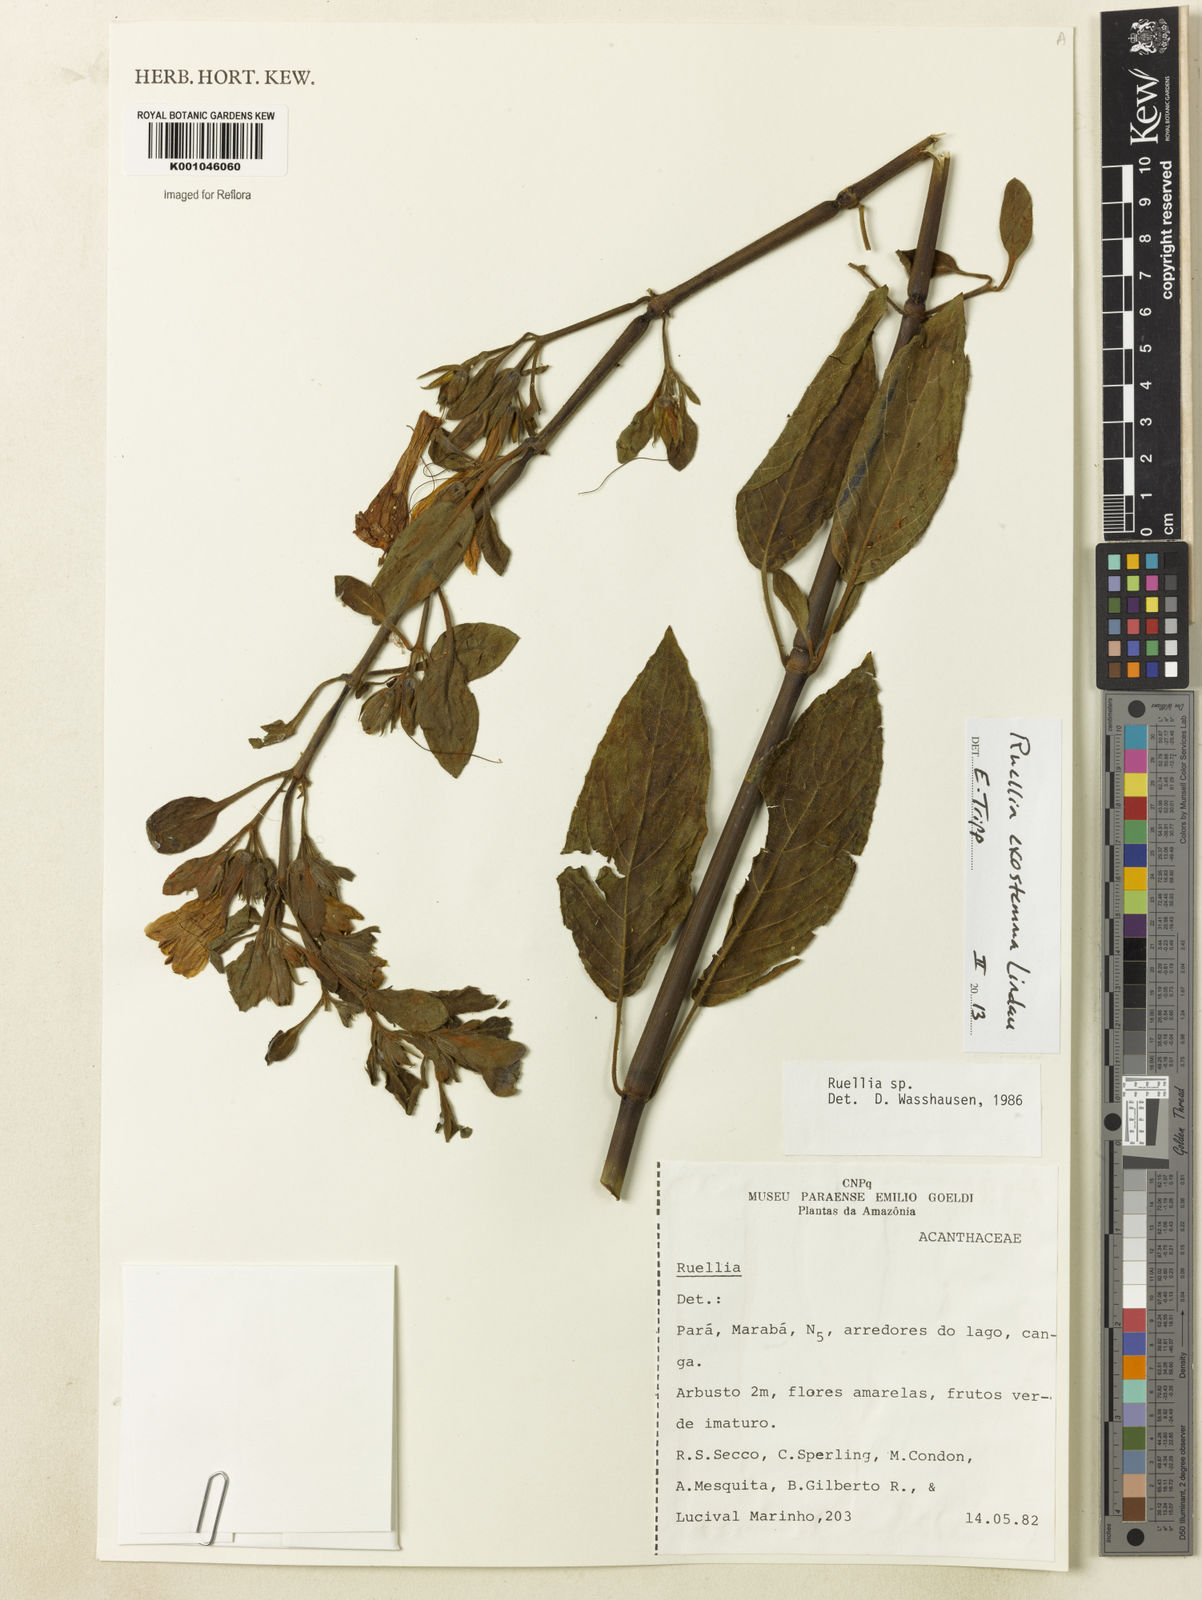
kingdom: Plantae
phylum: Tracheophyta
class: Magnoliopsida
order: Lamiales
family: Acanthaceae
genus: Ruellia
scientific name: Ruellia
